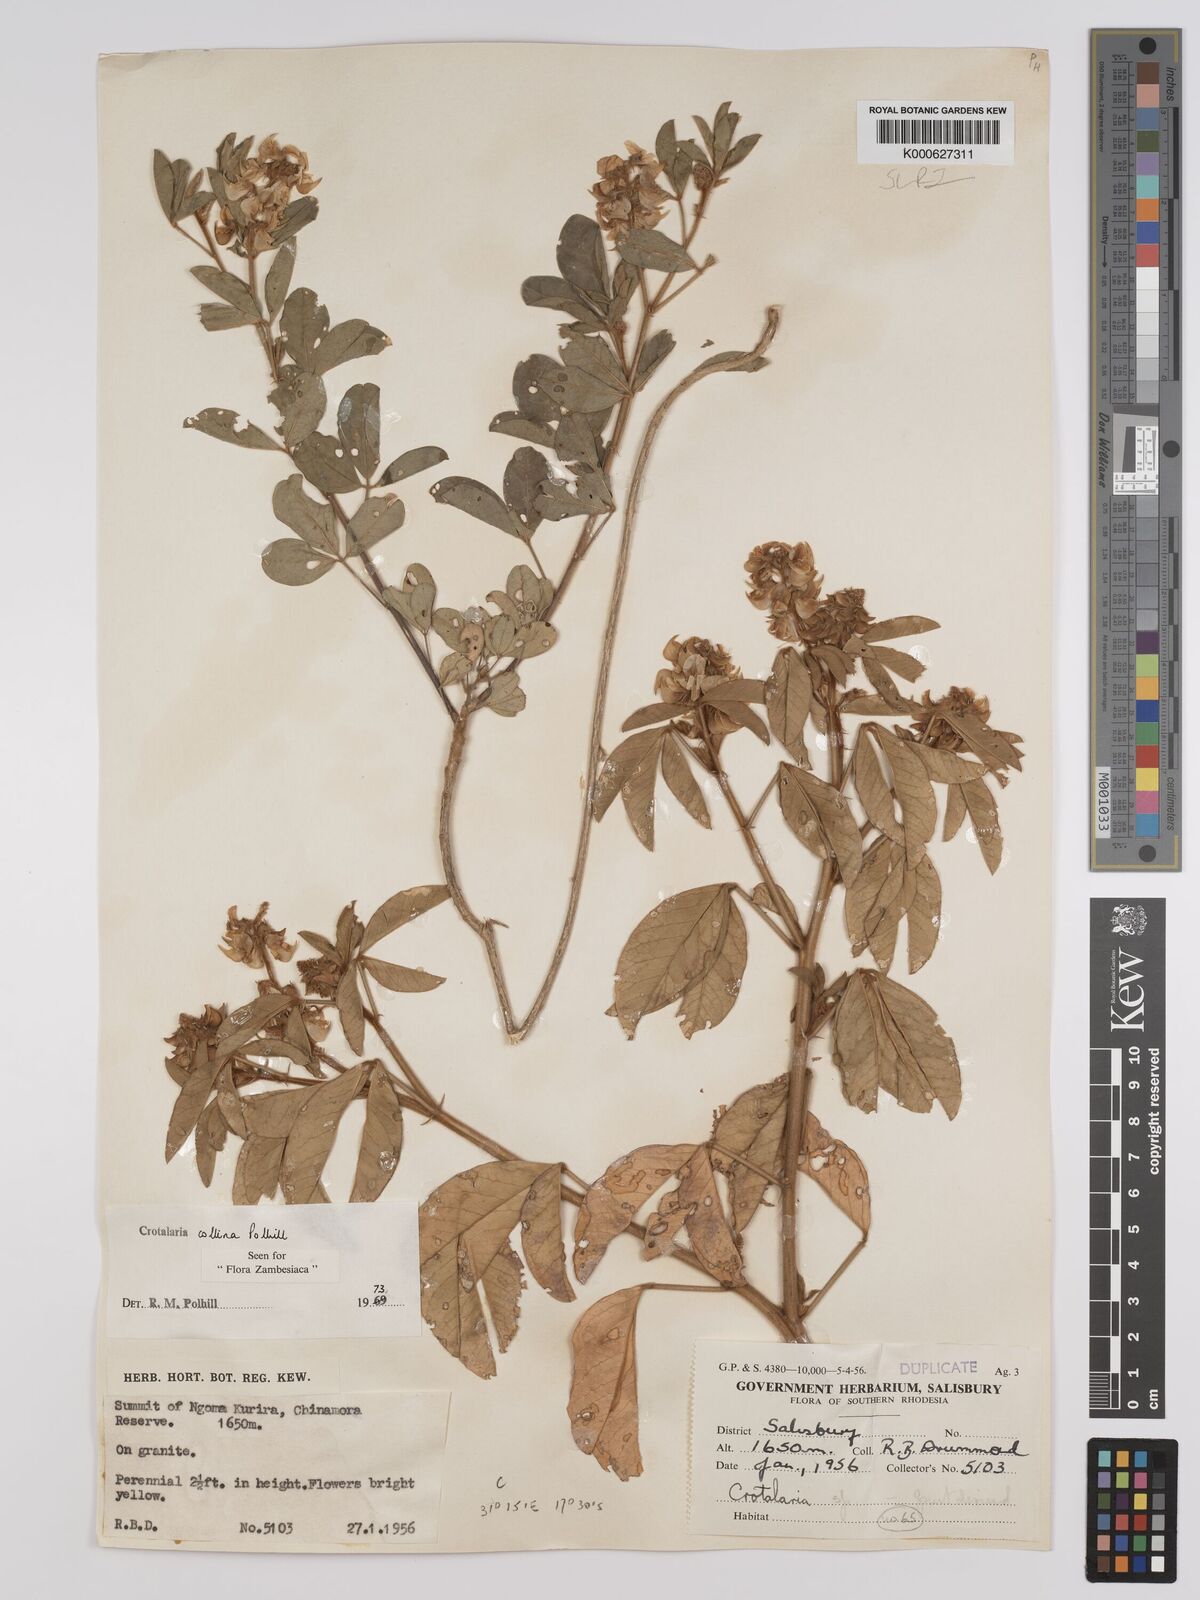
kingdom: Plantae
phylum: Tracheophyta
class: Magnoliopsida
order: Fabales
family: Fabaceae
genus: Crotalaria
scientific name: Crotalaria collina
